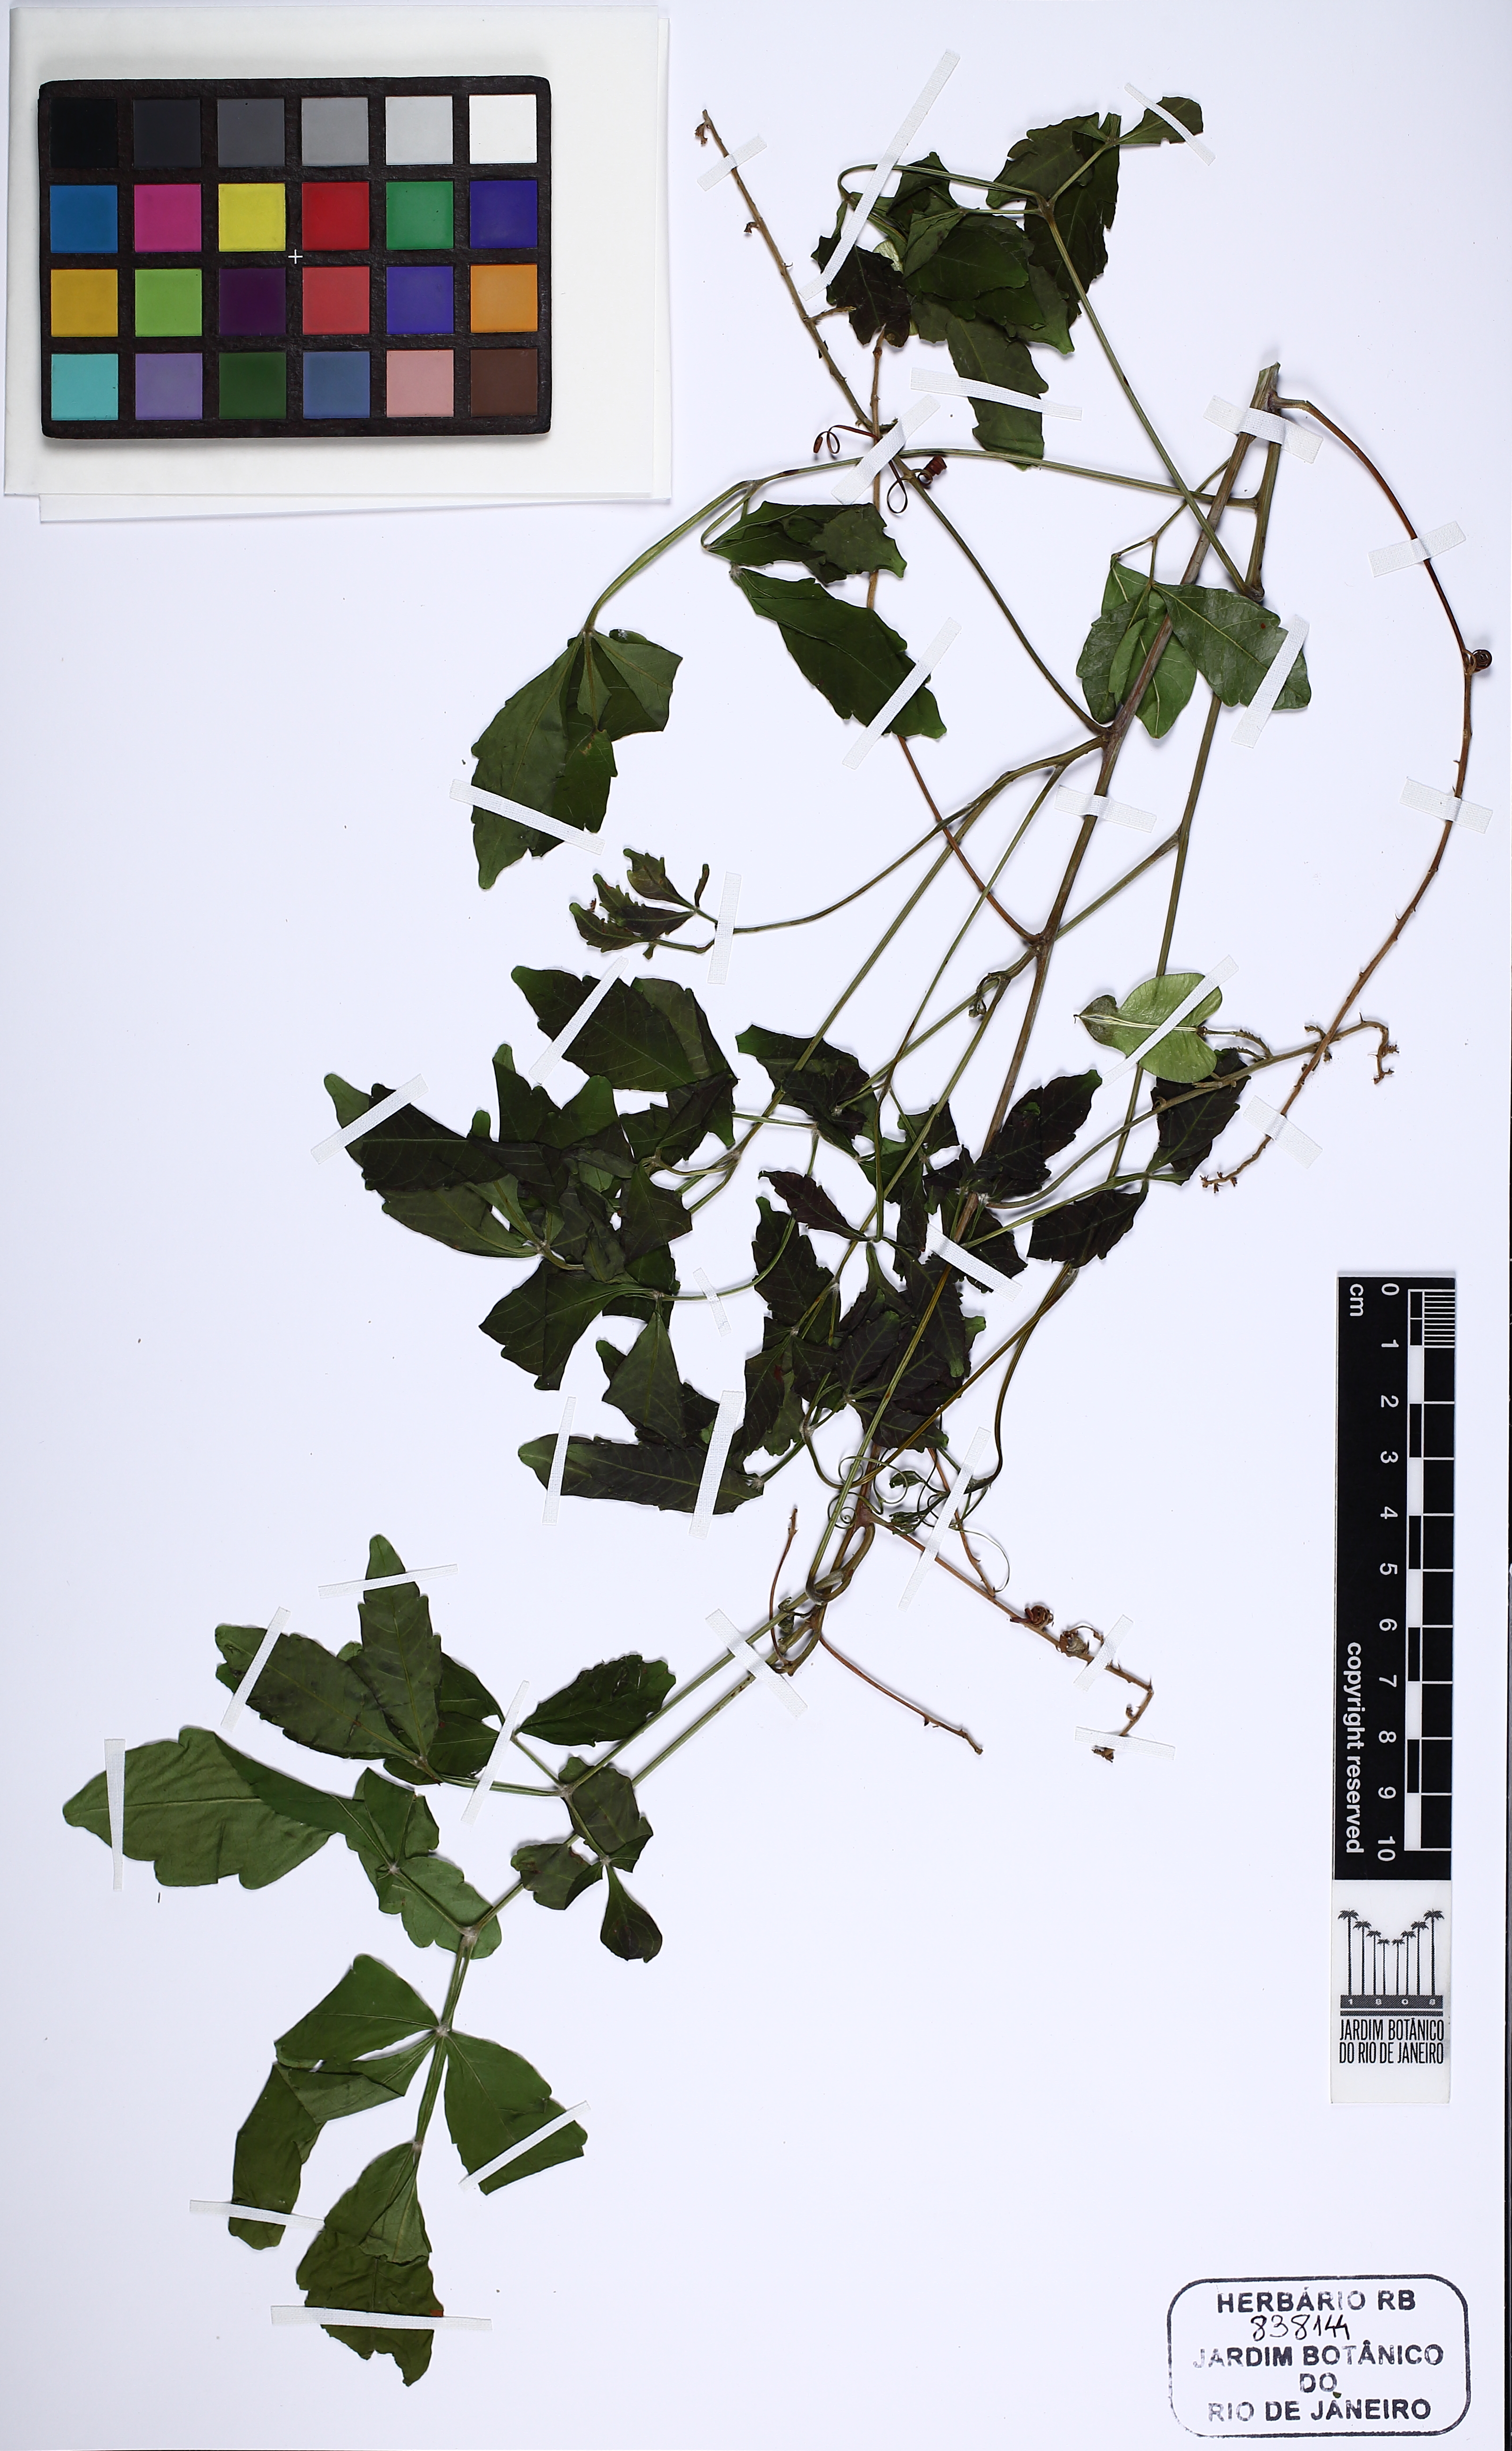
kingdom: Plantae
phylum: Tracheophyta
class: Magnoliopsida
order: Sapindales
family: Sapindaceae
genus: Serjania
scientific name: Serjania lethalis
